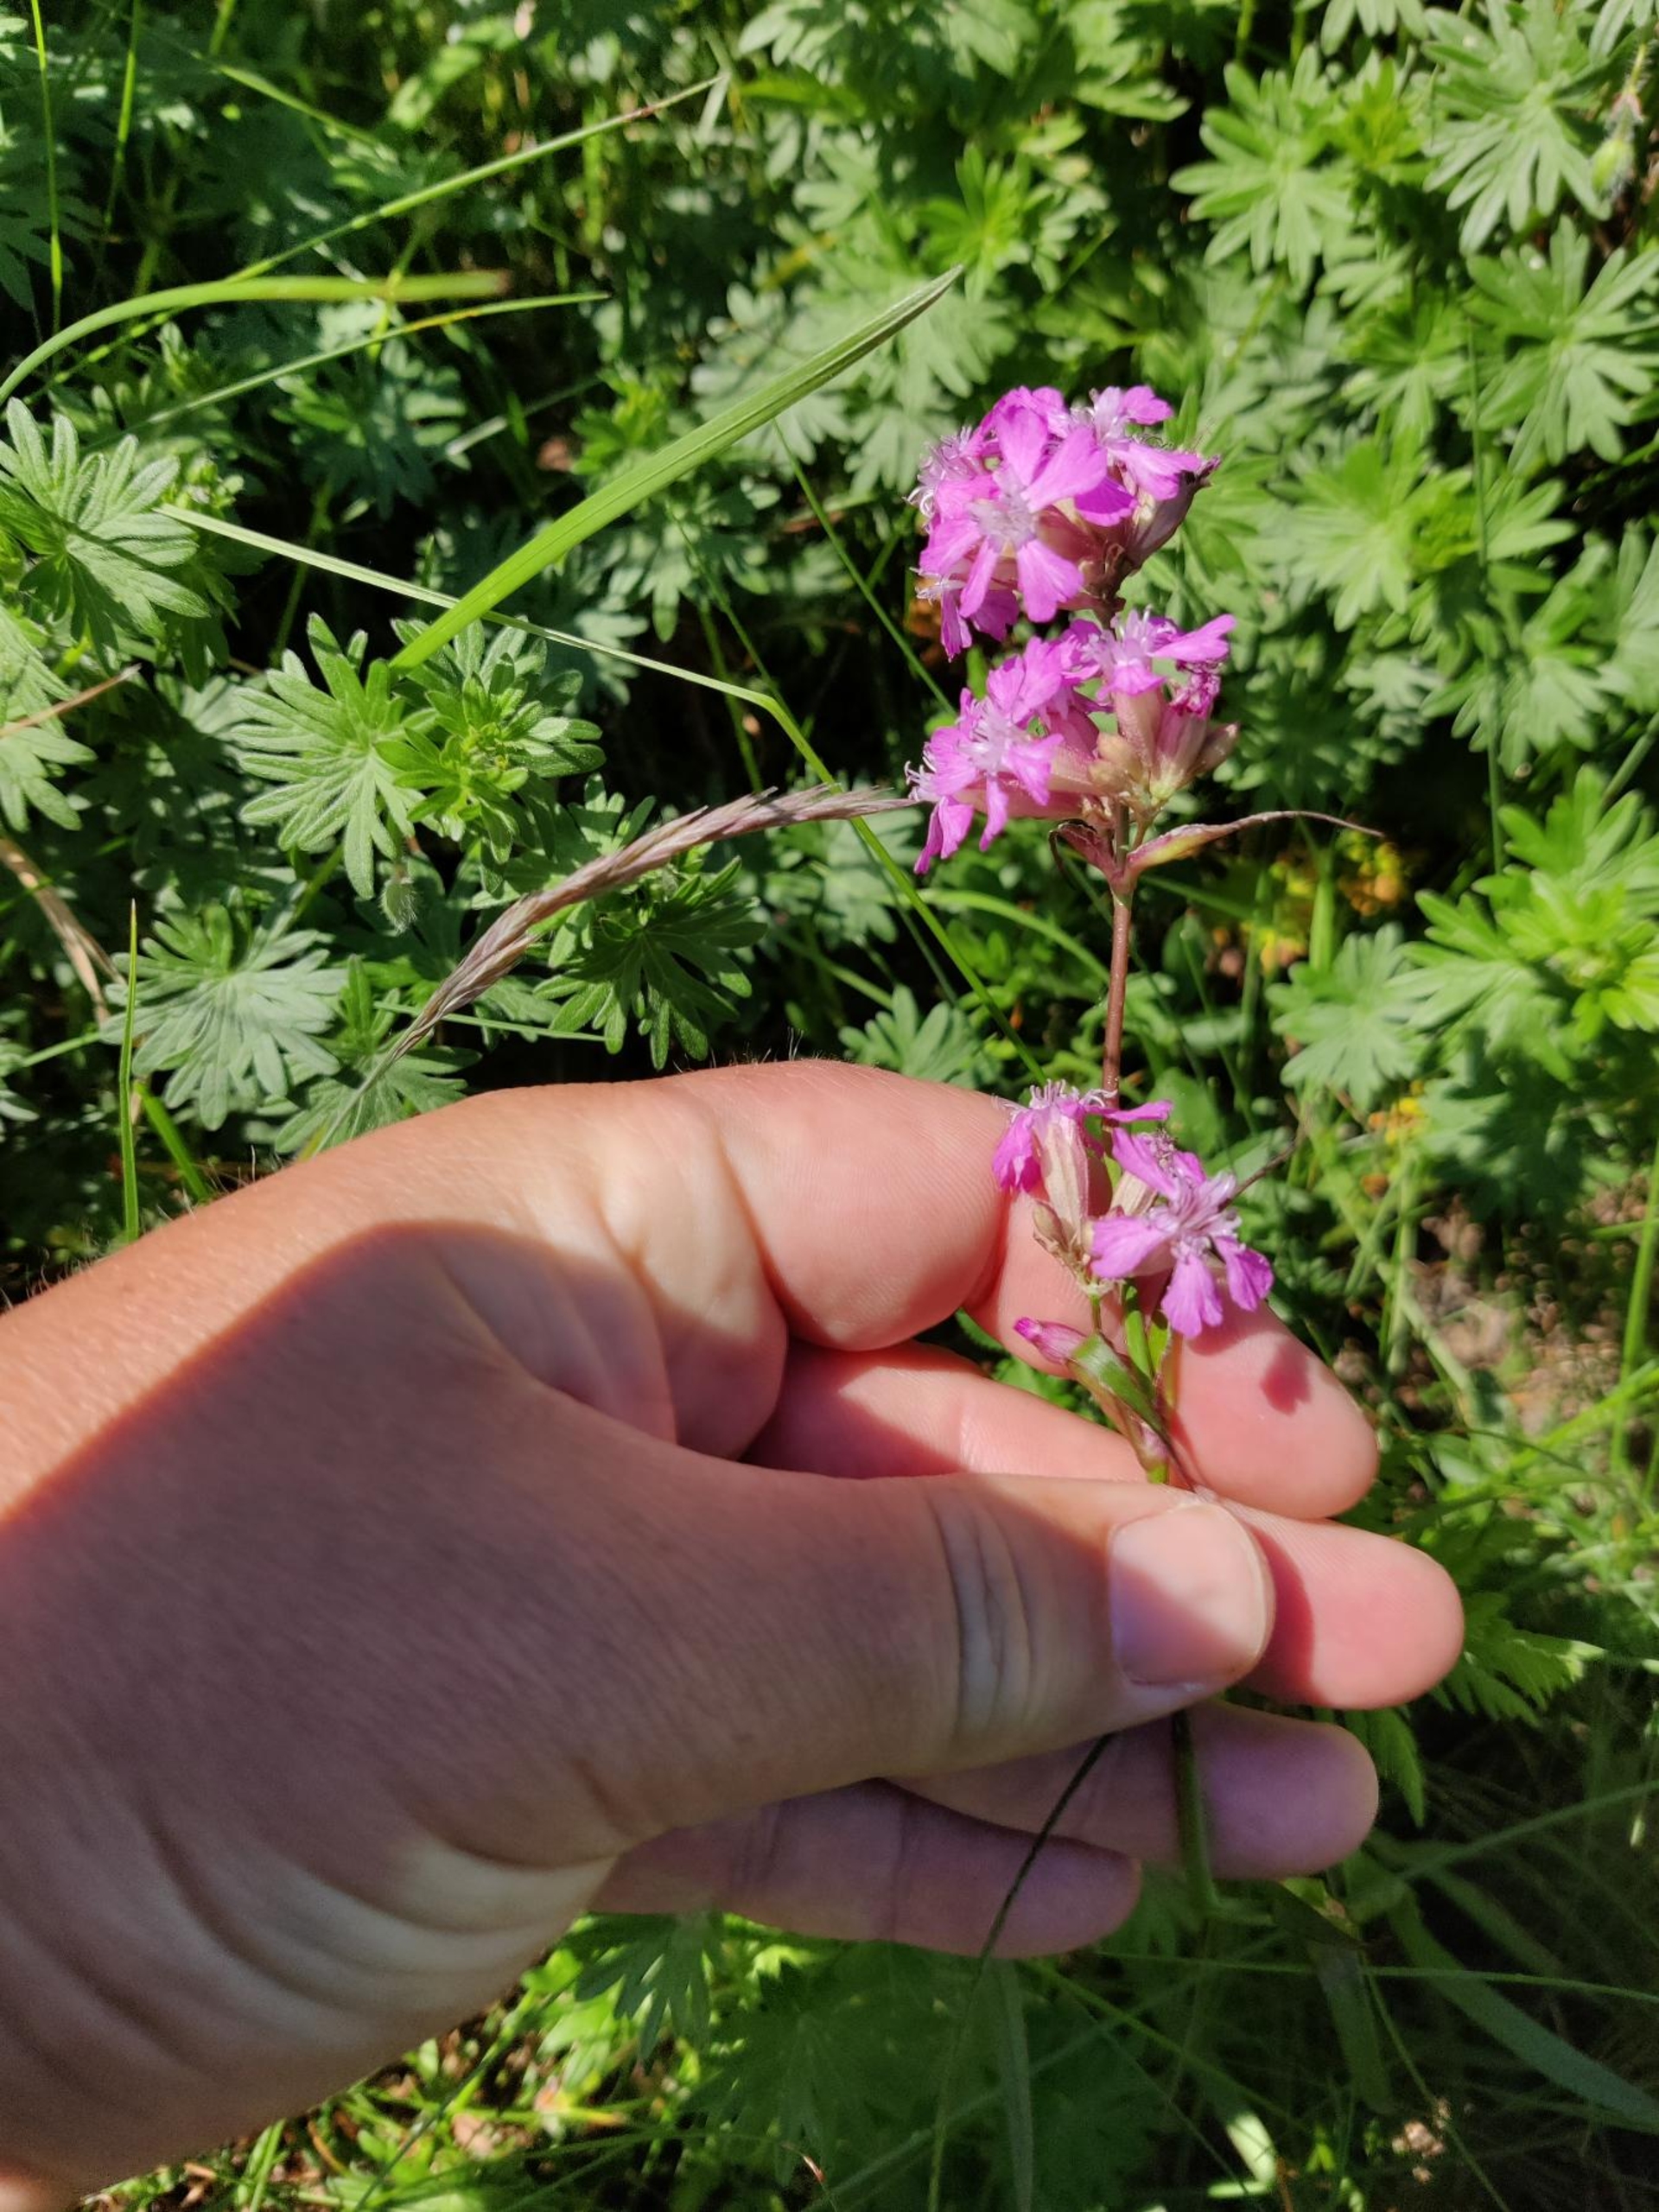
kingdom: Plantae
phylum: Tracheophyta
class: Magnoliopsida
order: Caryophyllales
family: Caryophyllaceae
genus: Viscaria
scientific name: Viscaria vulgaris
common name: Tjærenellike
